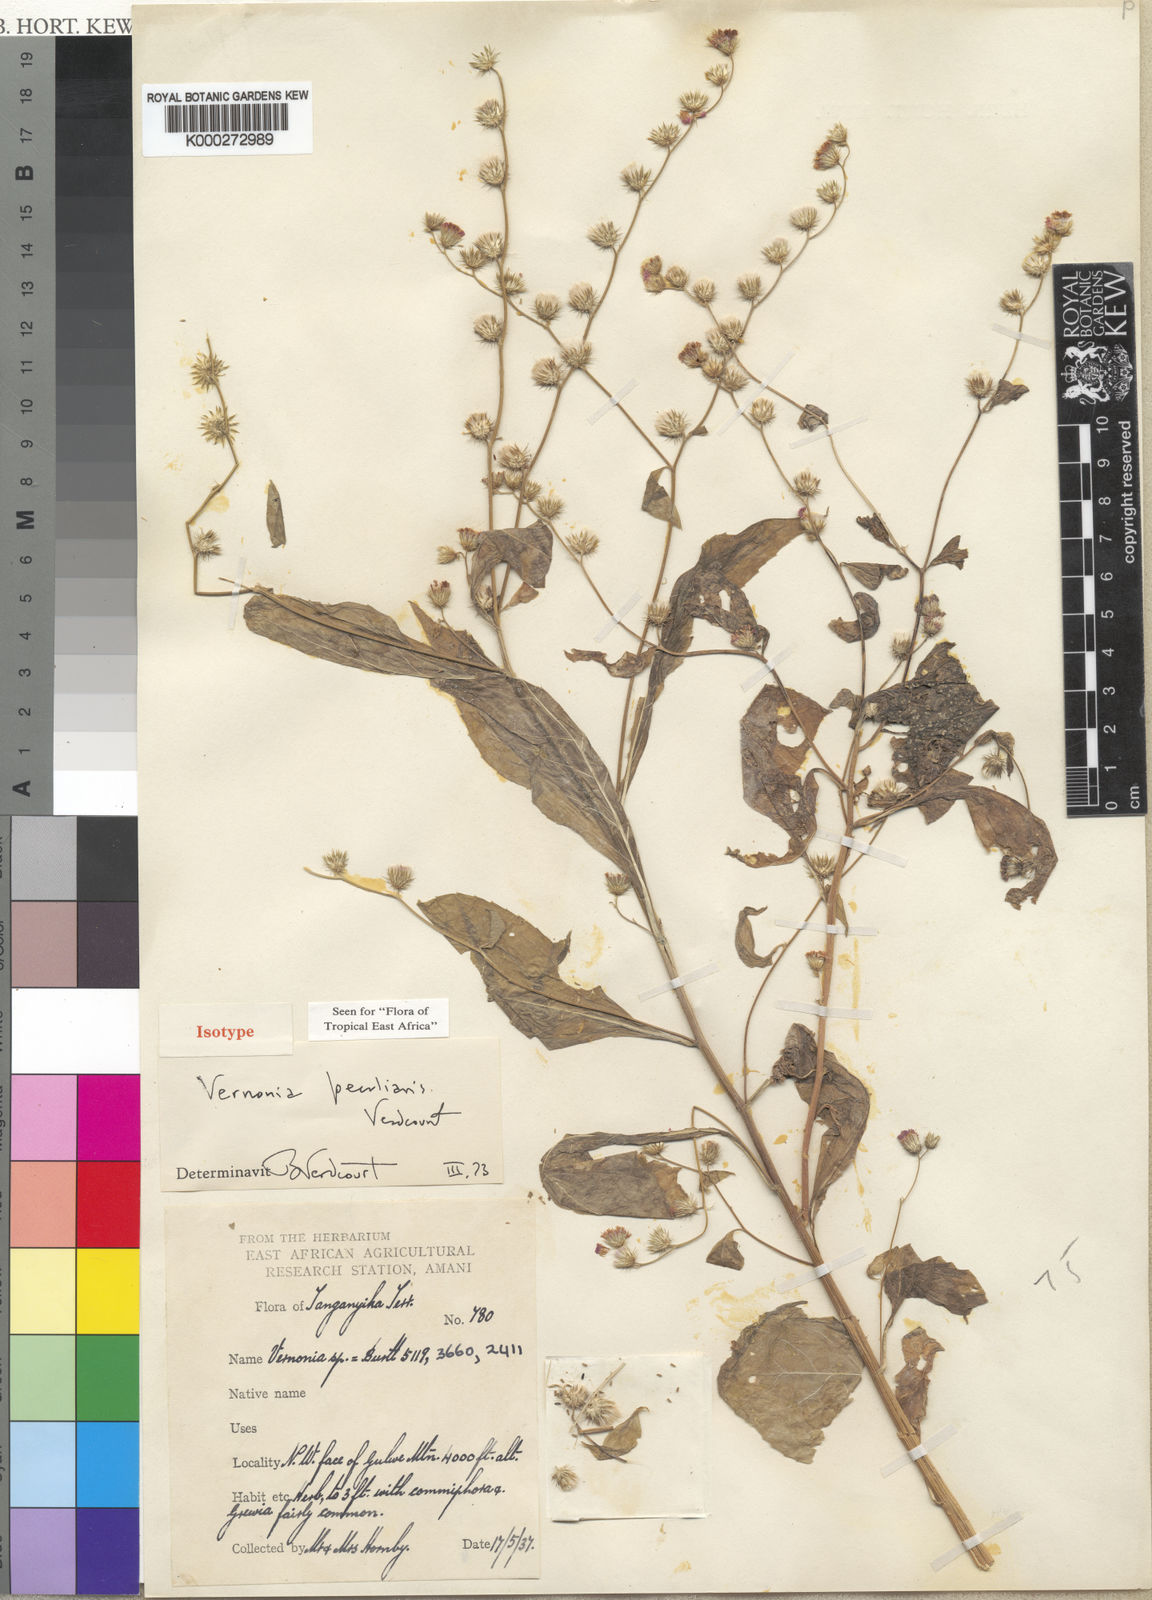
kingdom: Plantae
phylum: Tracheophyta
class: Magnoliopsida
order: Asterales
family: Asteraceae
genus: Manyonia
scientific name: Manyonia peculiaris
